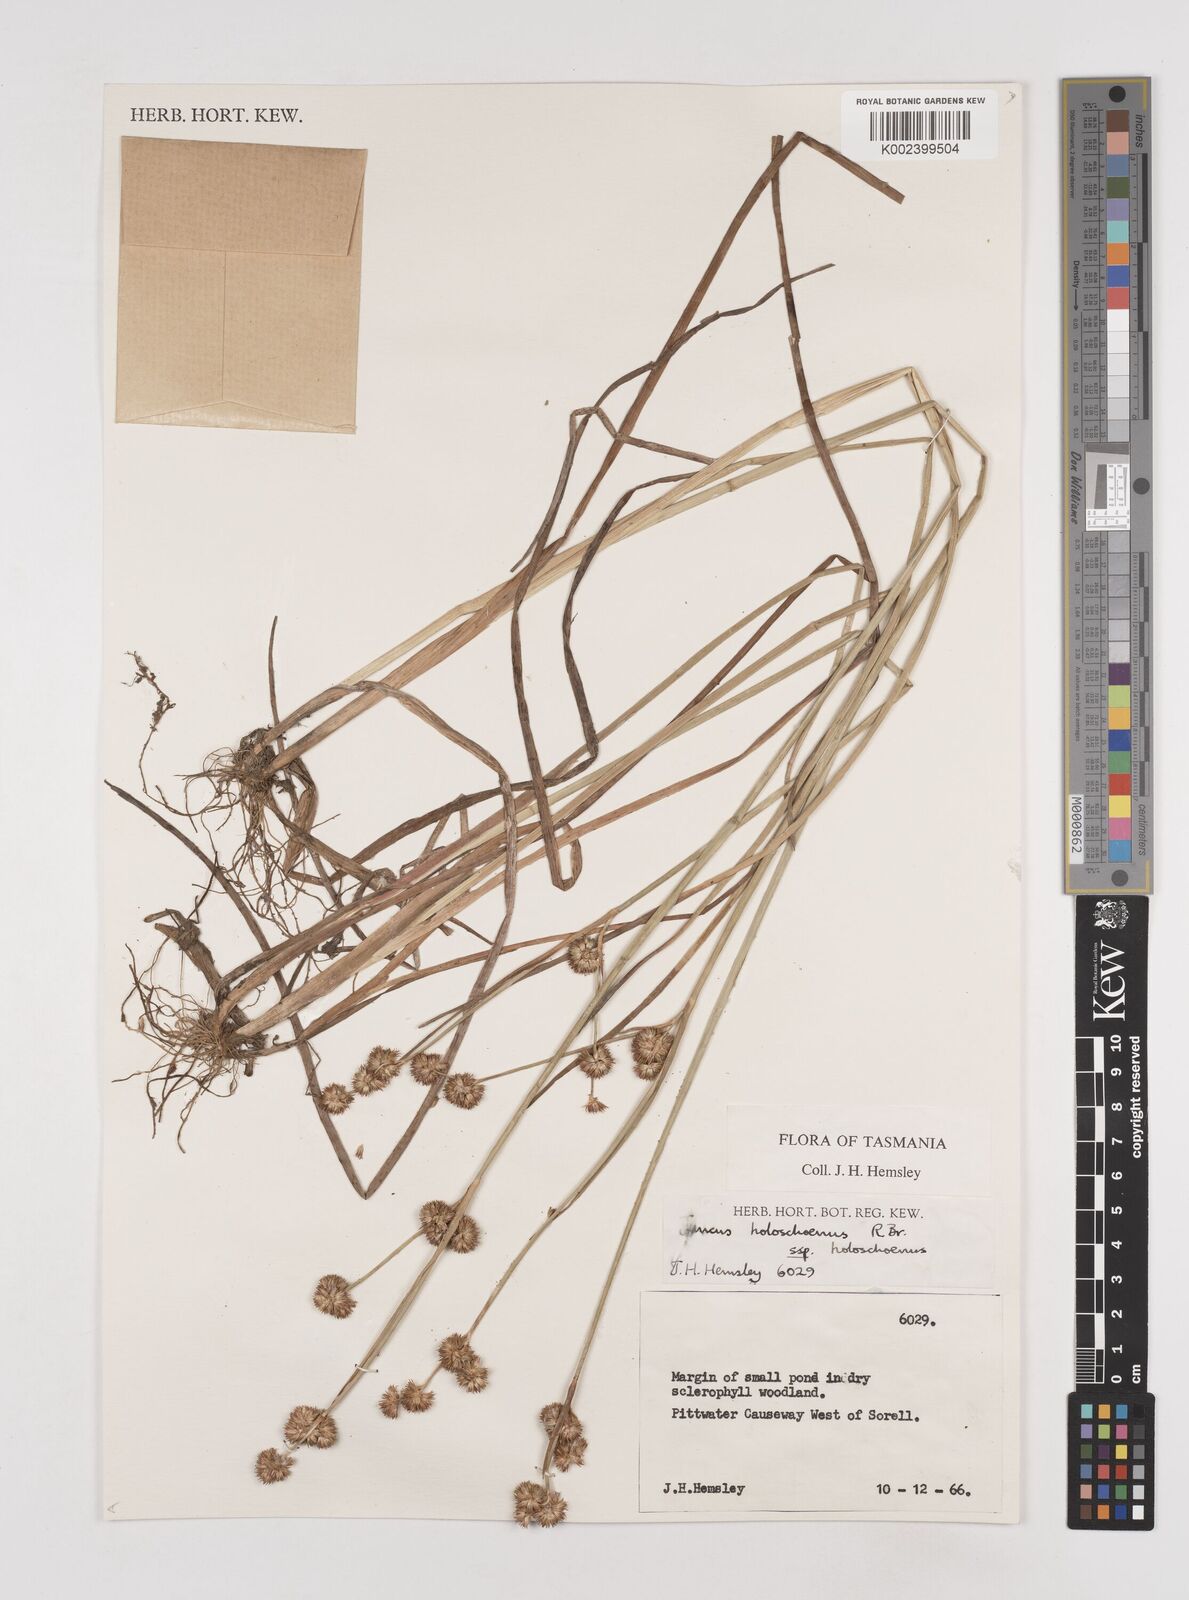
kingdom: Plantae
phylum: Tracheophyta
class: Liliopsida
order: Poales
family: Juncaceae
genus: Juncus
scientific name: Juncus holoschoenus
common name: Joint-leaf rush
